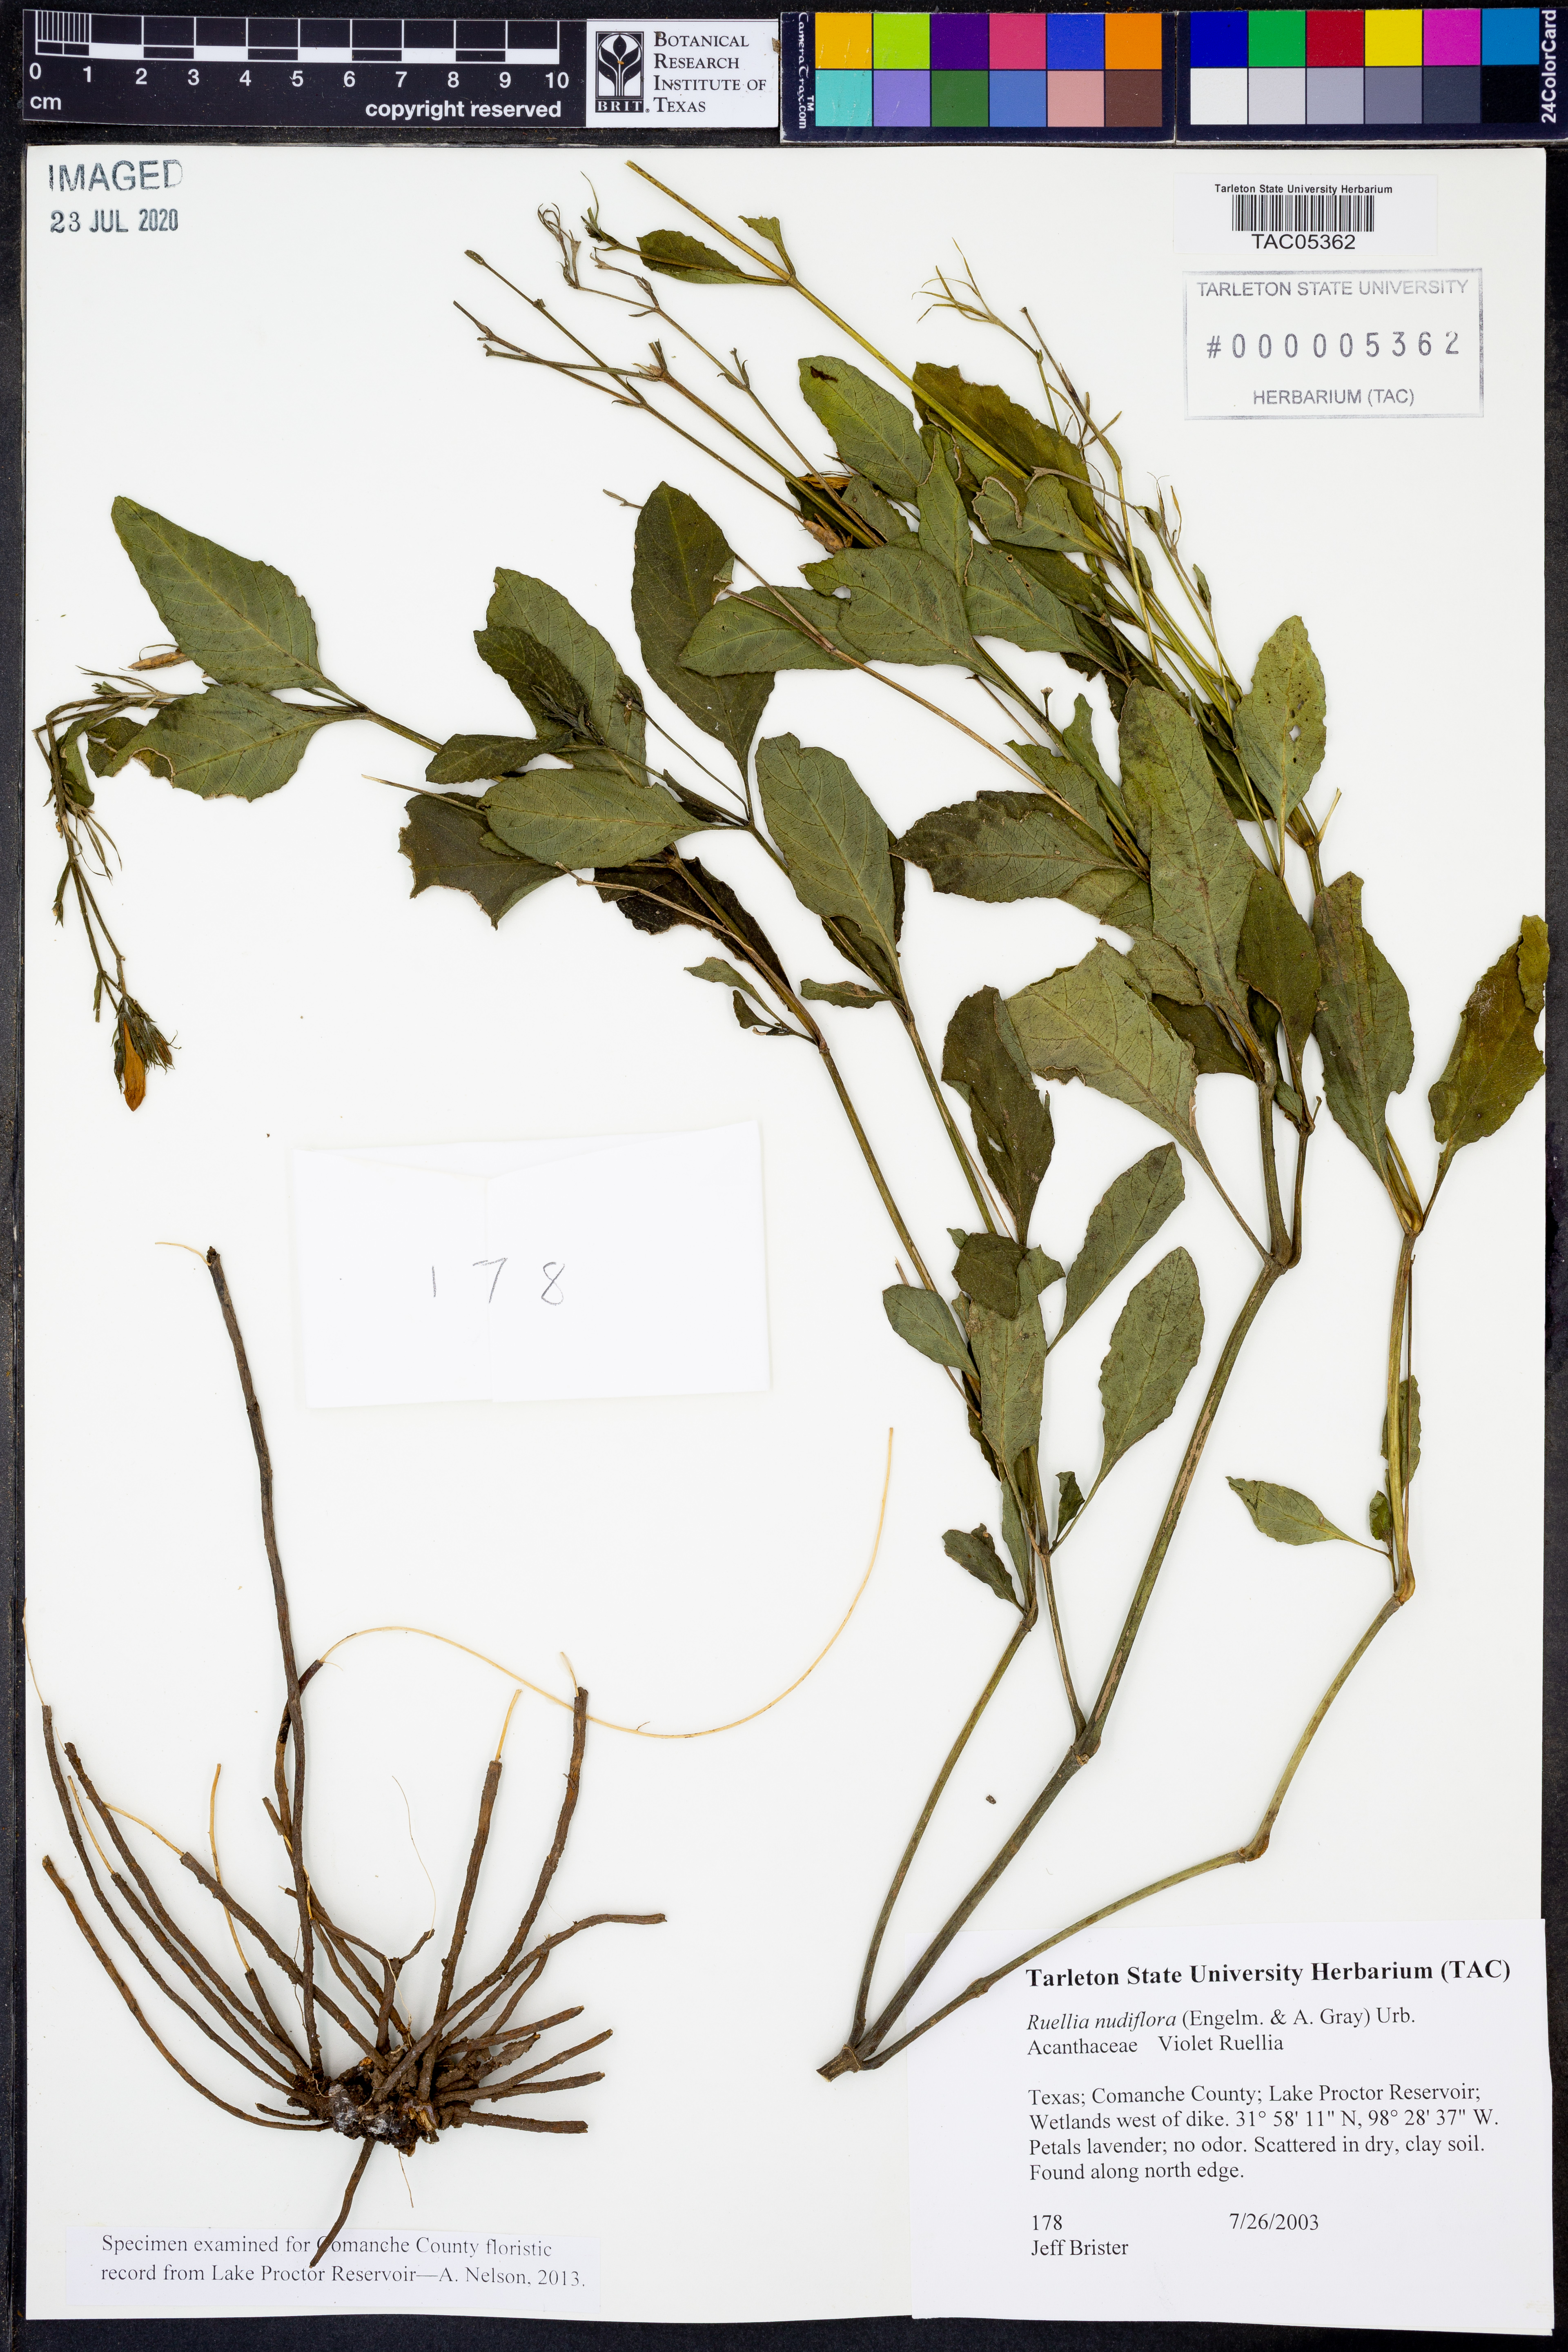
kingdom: Plantae
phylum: Tracheophyta
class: Magnoliopsida
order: Lamiales
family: Acanthaceae
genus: Ruellia
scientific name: Ruellia ciliatiflora
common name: Hairyflower wild petunia
